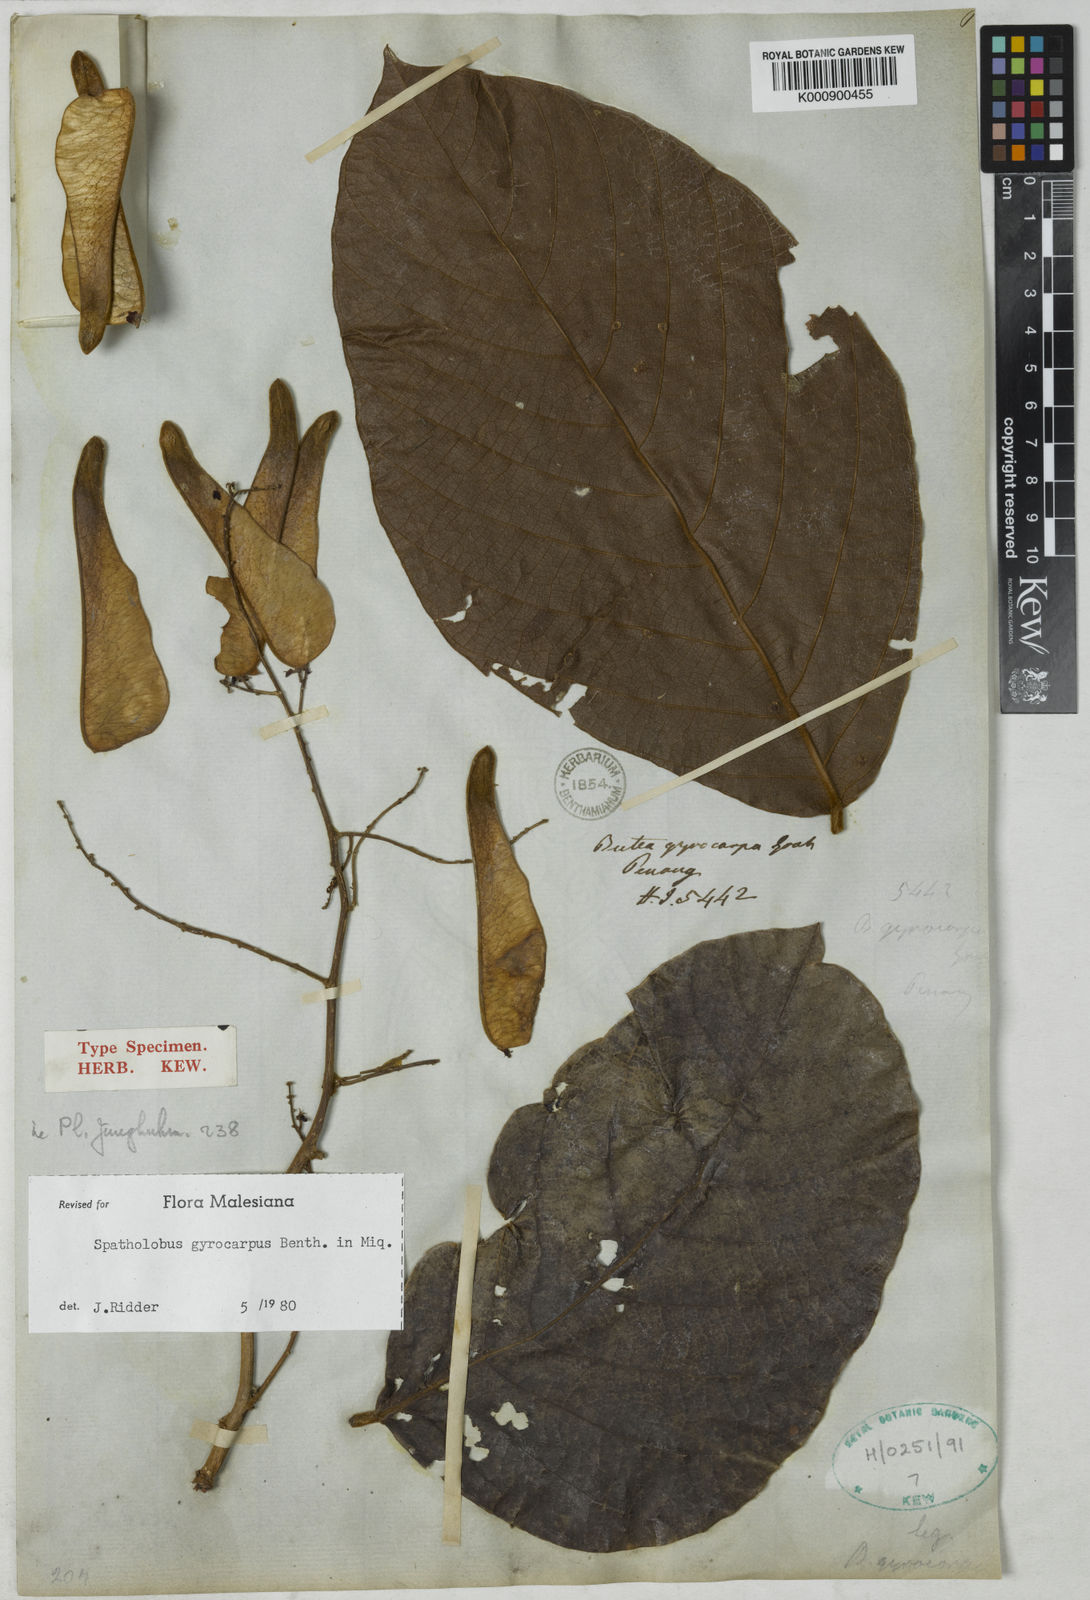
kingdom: Plantae
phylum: Tracheophyta
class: Magnoliopsida
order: Fabales
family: Fabaceae
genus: Spatholobus
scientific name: Spatholobus gyrocarpus
